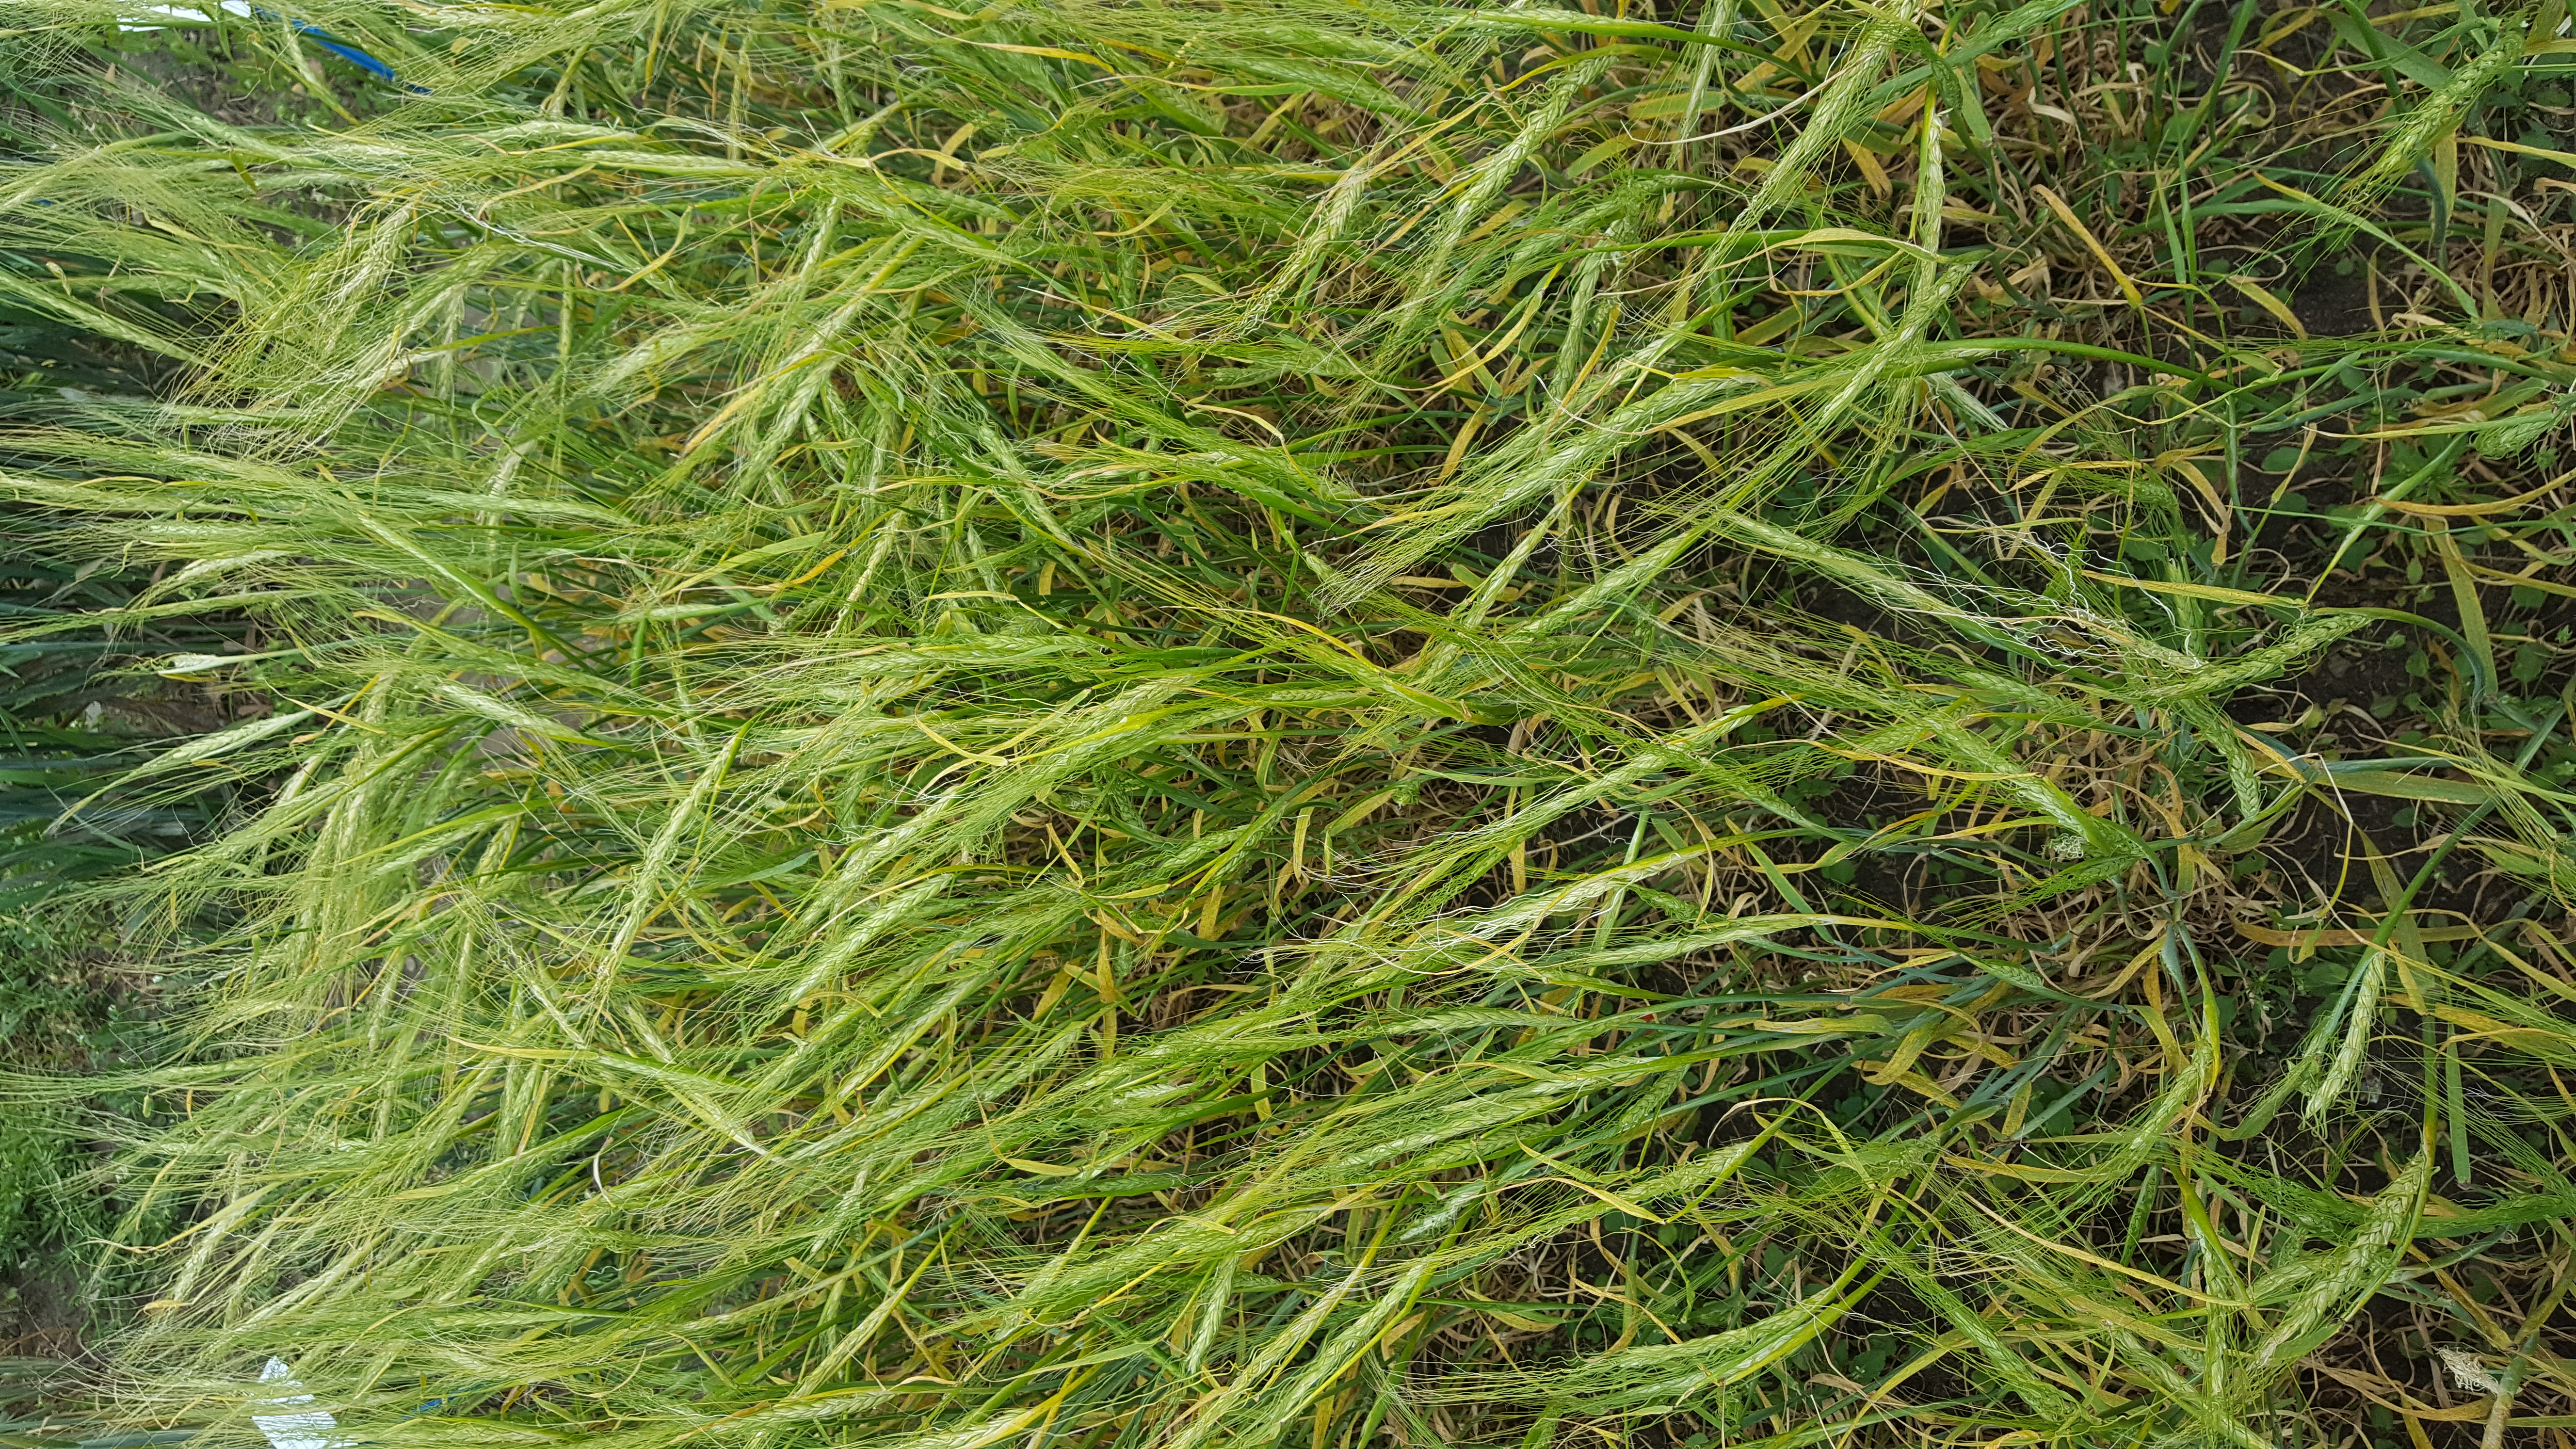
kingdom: Plantae
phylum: Tracheophyta
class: Liliopsida
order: Poales
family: Poaceae
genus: Hordeum
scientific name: Hordeum vulgare
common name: Common barley
